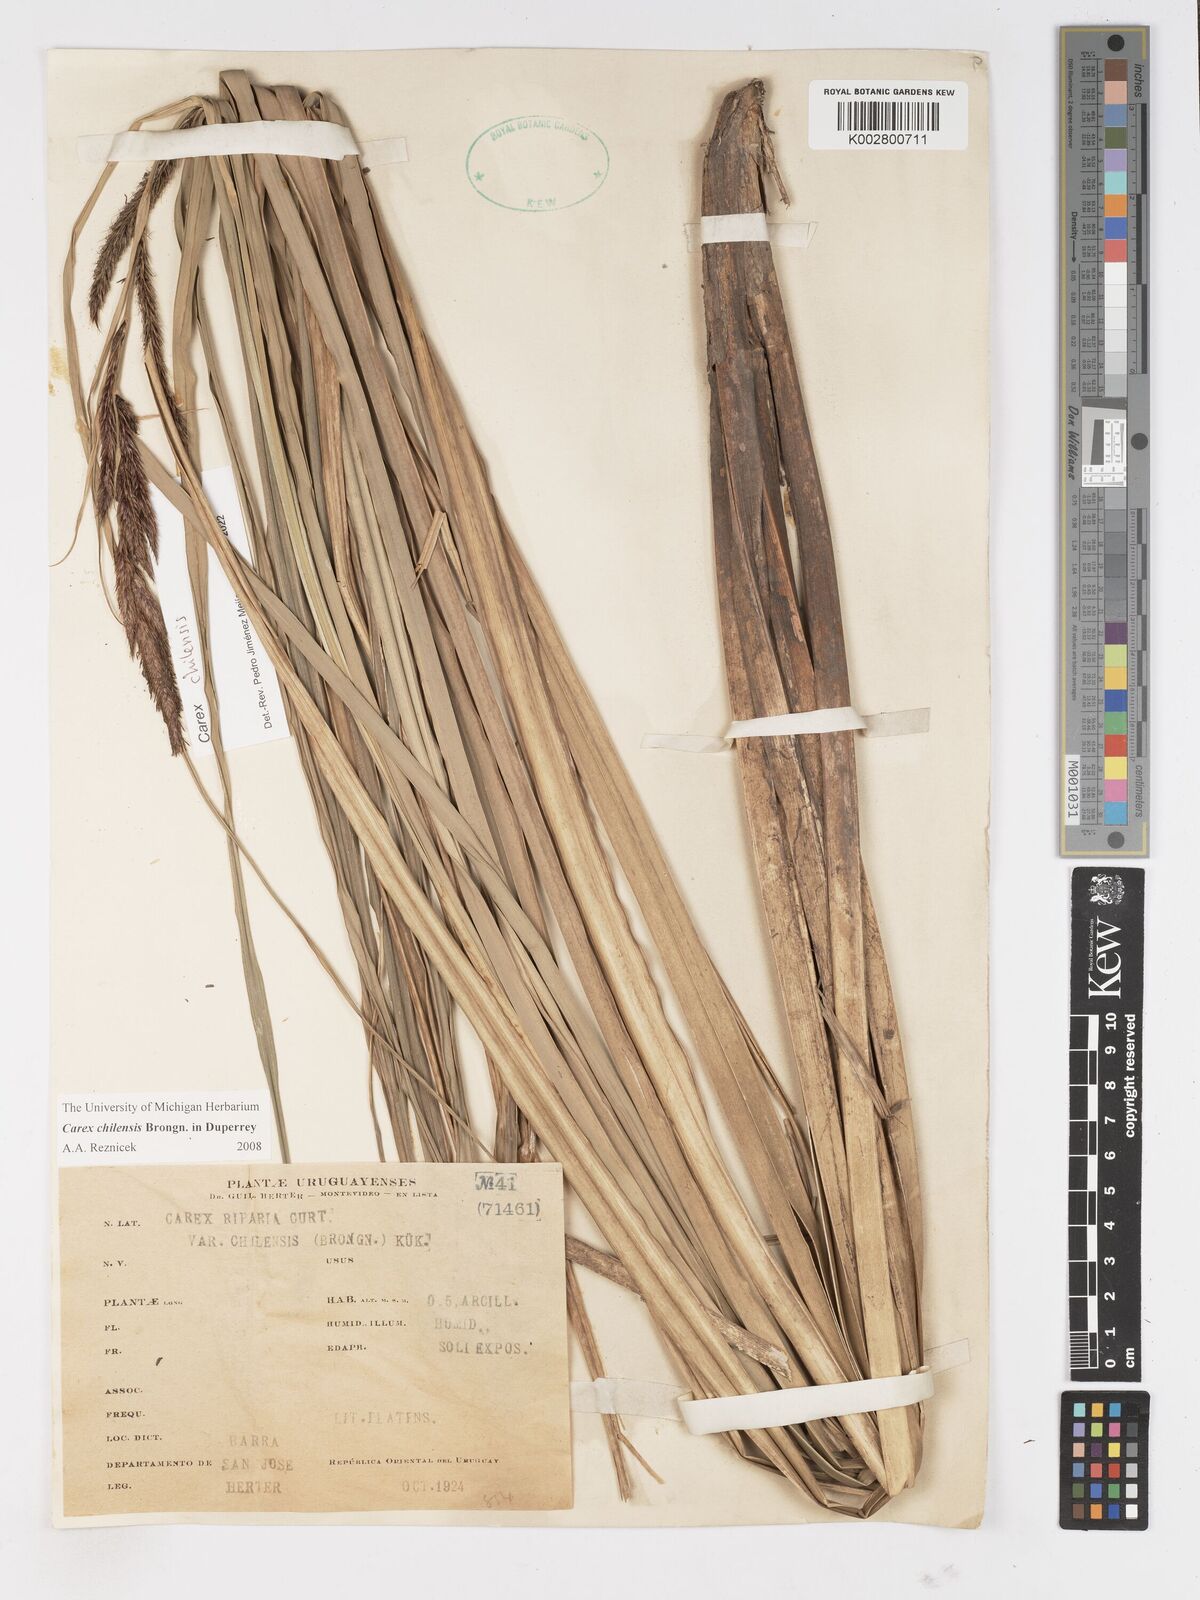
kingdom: Plantae
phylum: Tracheophyta
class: Liliopsida
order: Poales
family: Cyperaceae
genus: Carex
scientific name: Carex chilensis
